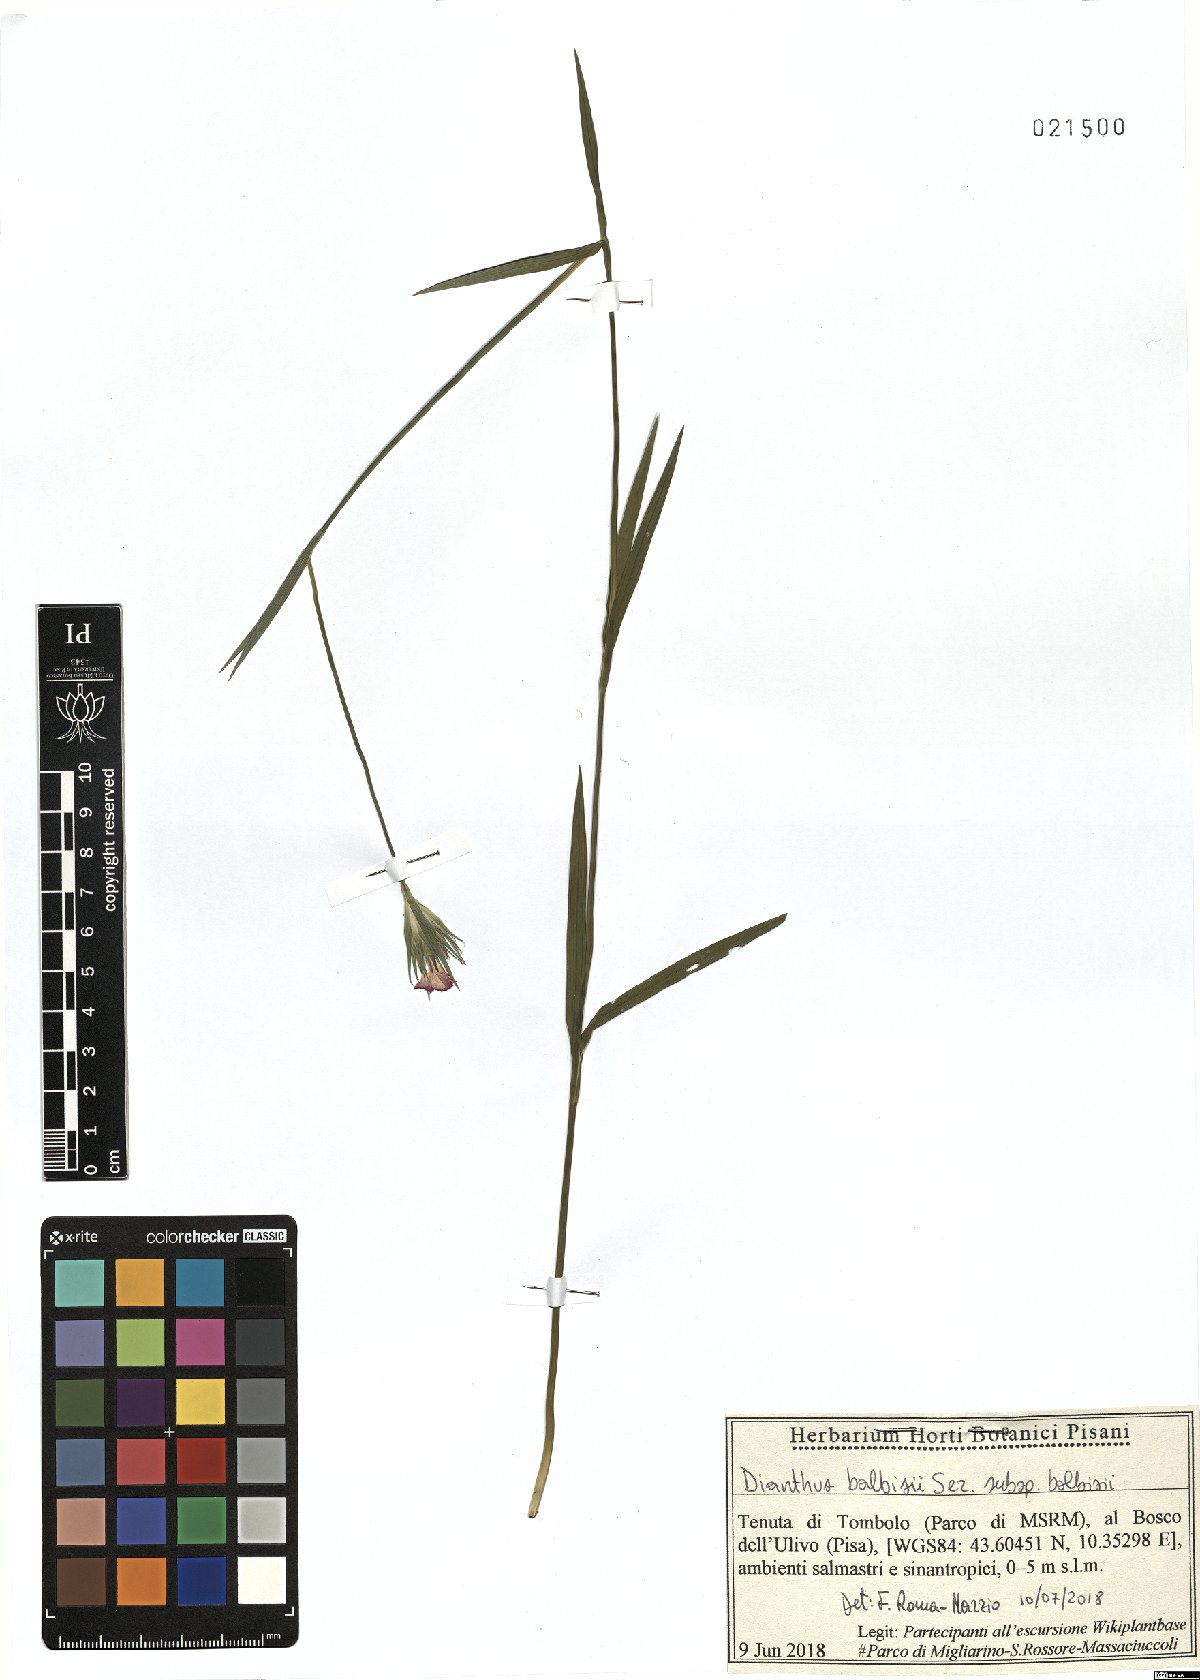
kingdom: Plantae
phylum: Tracheophyta
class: Magnoliopsida
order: Caryophyllales
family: Caryophyllaceae
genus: Dianthus
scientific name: Dianthus balbisii
